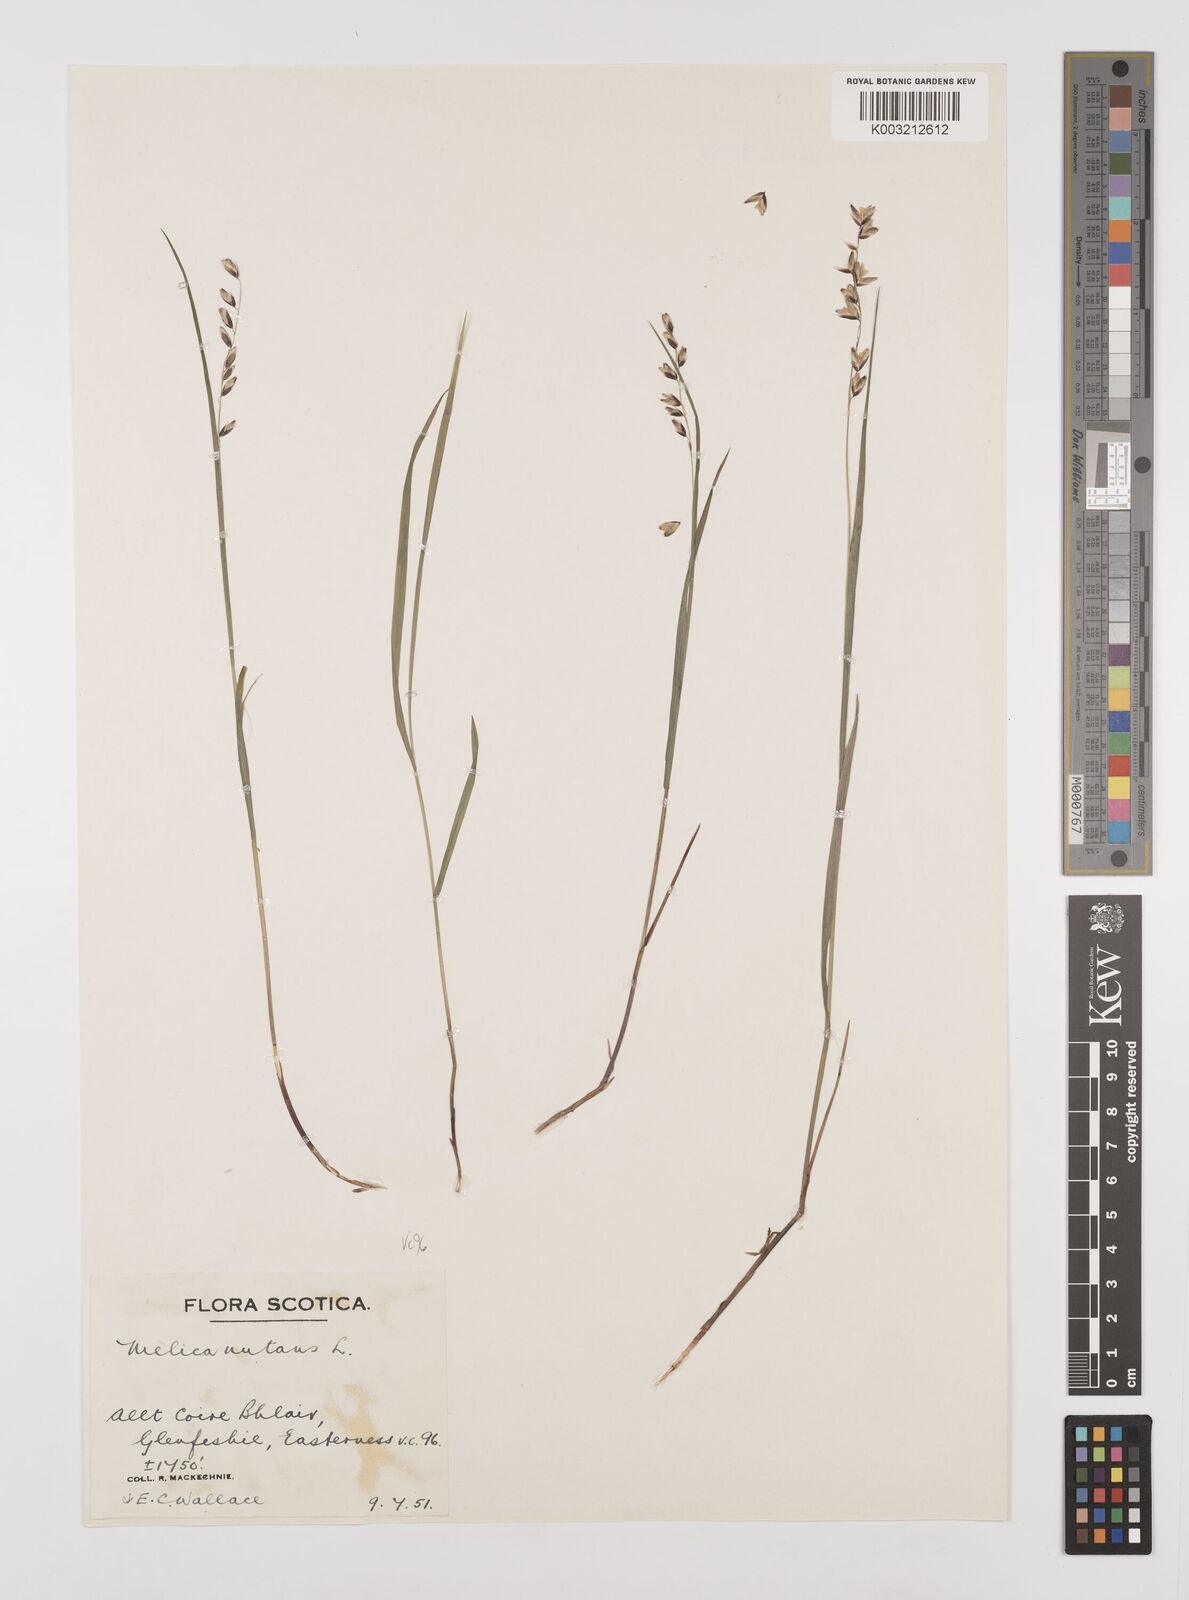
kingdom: Plantae
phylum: Tracheophyta
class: Liliopsida
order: Poales
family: Poaceae
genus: Melica
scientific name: Melica
